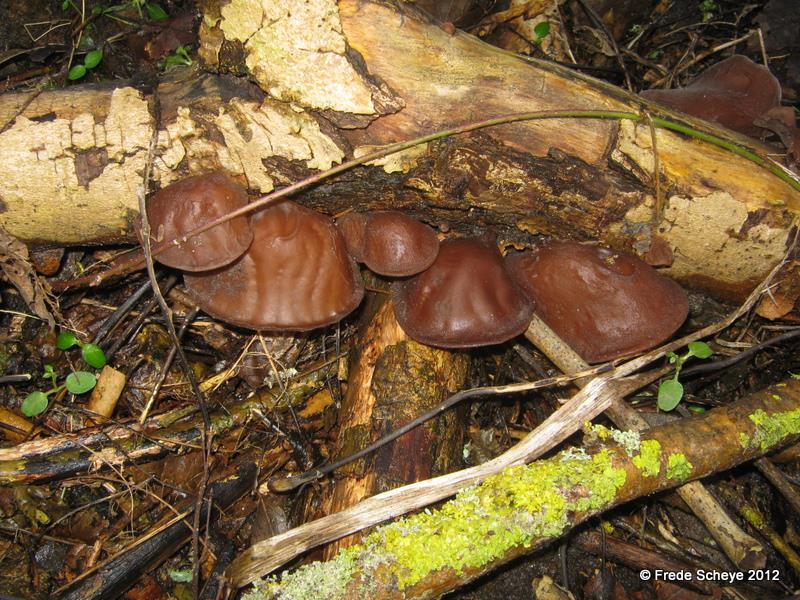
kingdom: Fungi
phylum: Basidiomycota
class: Agaricomycetes
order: Auriculariales
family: Auriculariaceae
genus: Auricularia
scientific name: Auricularia auricula-judae
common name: almindelig judasøre
